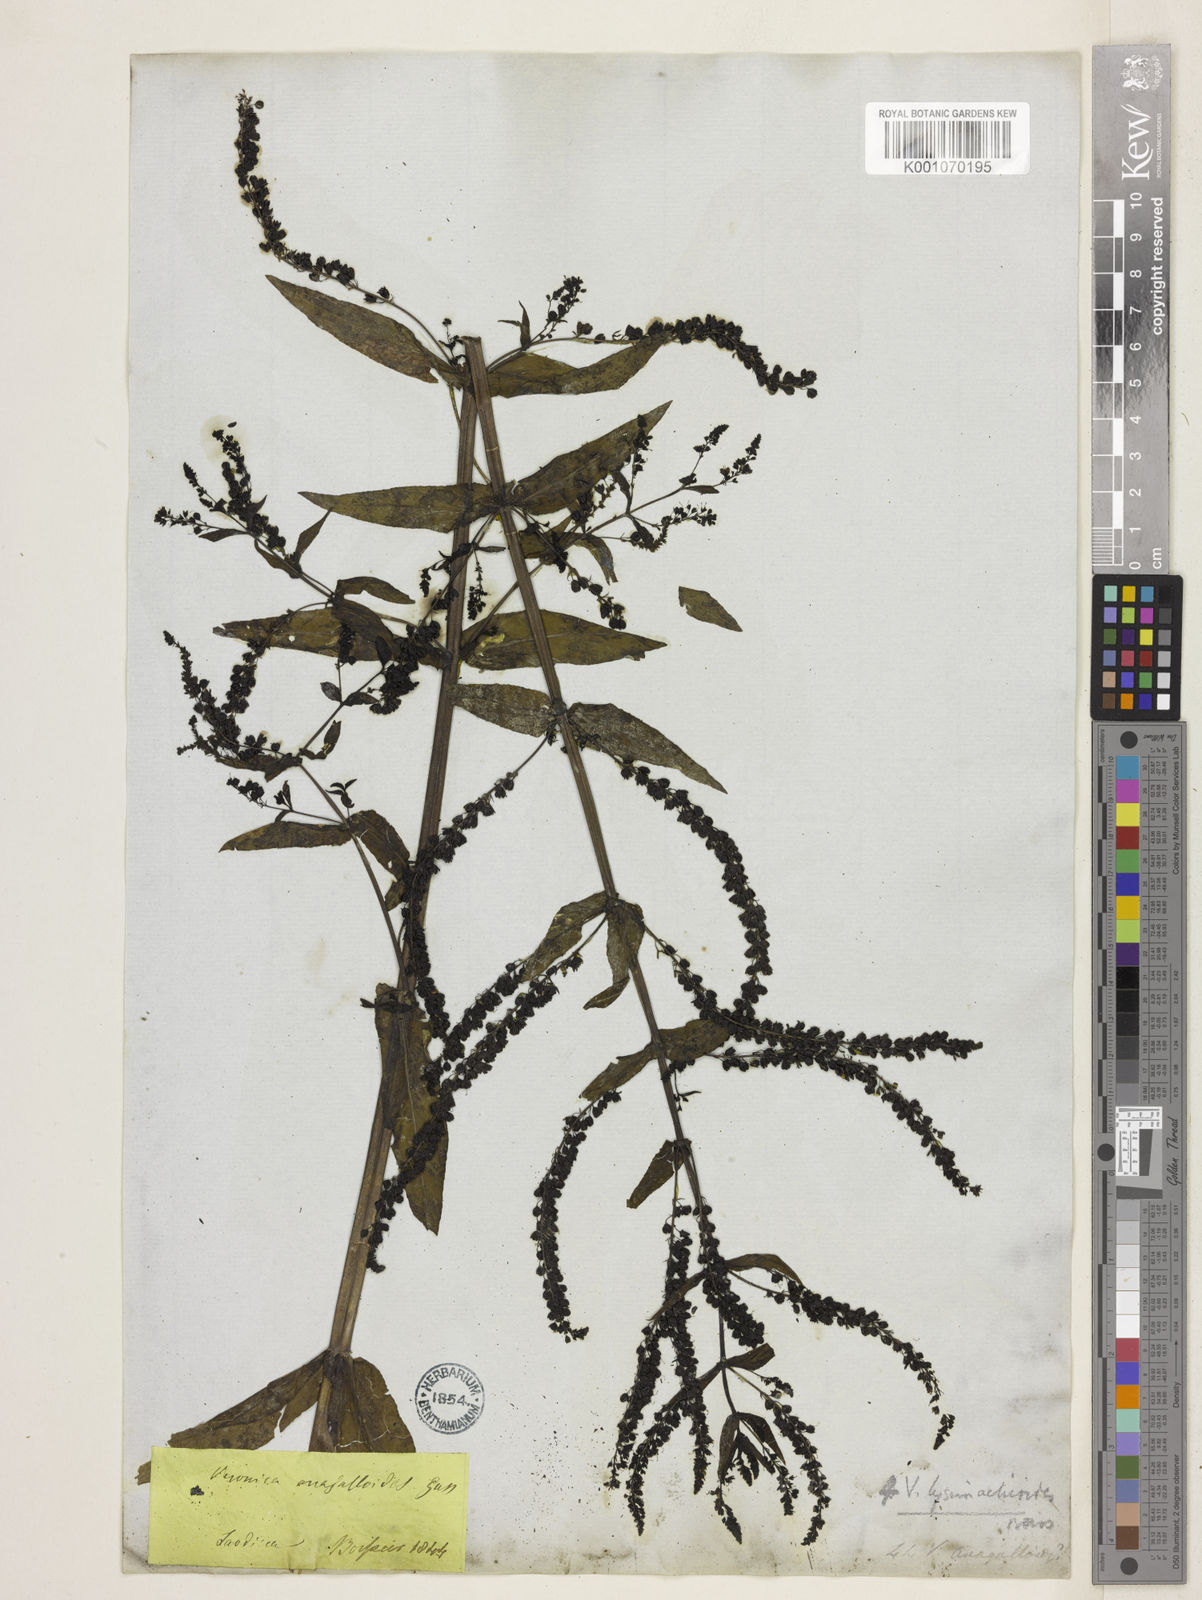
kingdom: Plantae
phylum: Tracheophyta
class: Magnoliopsida
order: Lamiales
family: Plantaginaceae
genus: Veronica
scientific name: Veronica anagallis-aquatica
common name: Water speedwell
